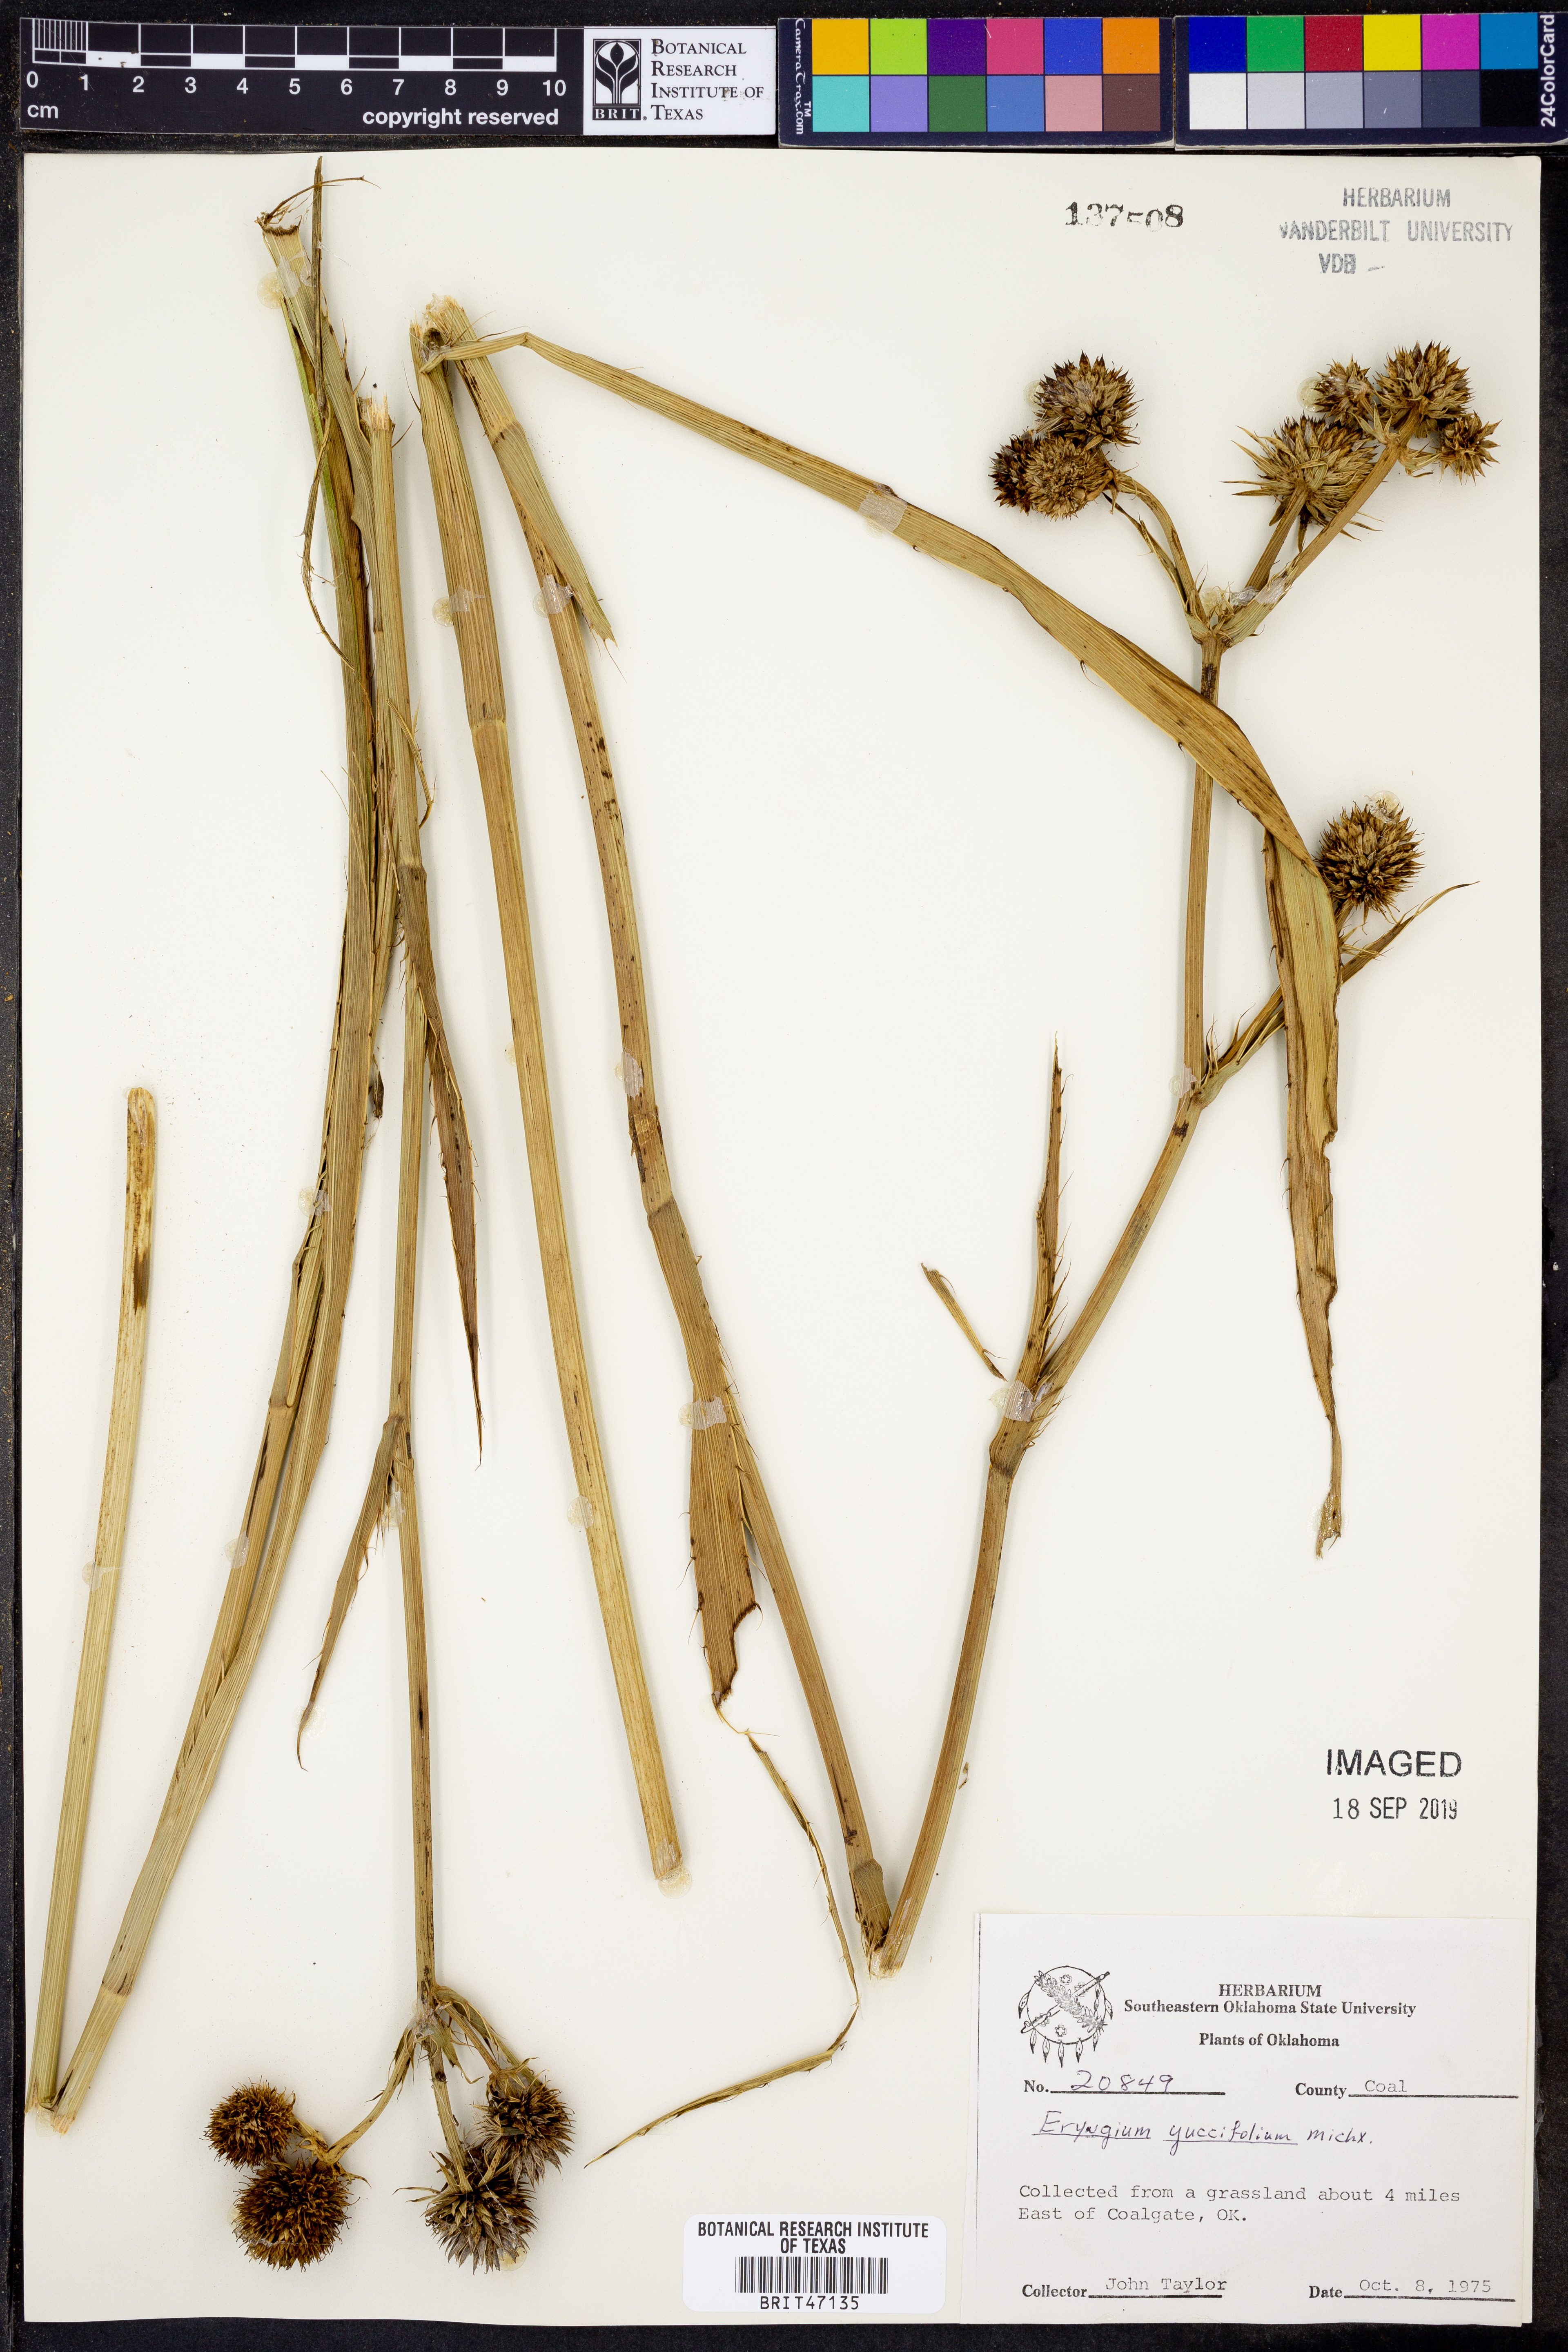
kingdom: Plantae
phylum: Tracheophyta
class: Magnoliopsida
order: Apiales
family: Apiaceae
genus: Eryngium
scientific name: Eryngium yuccifolium
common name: Button eryngo
